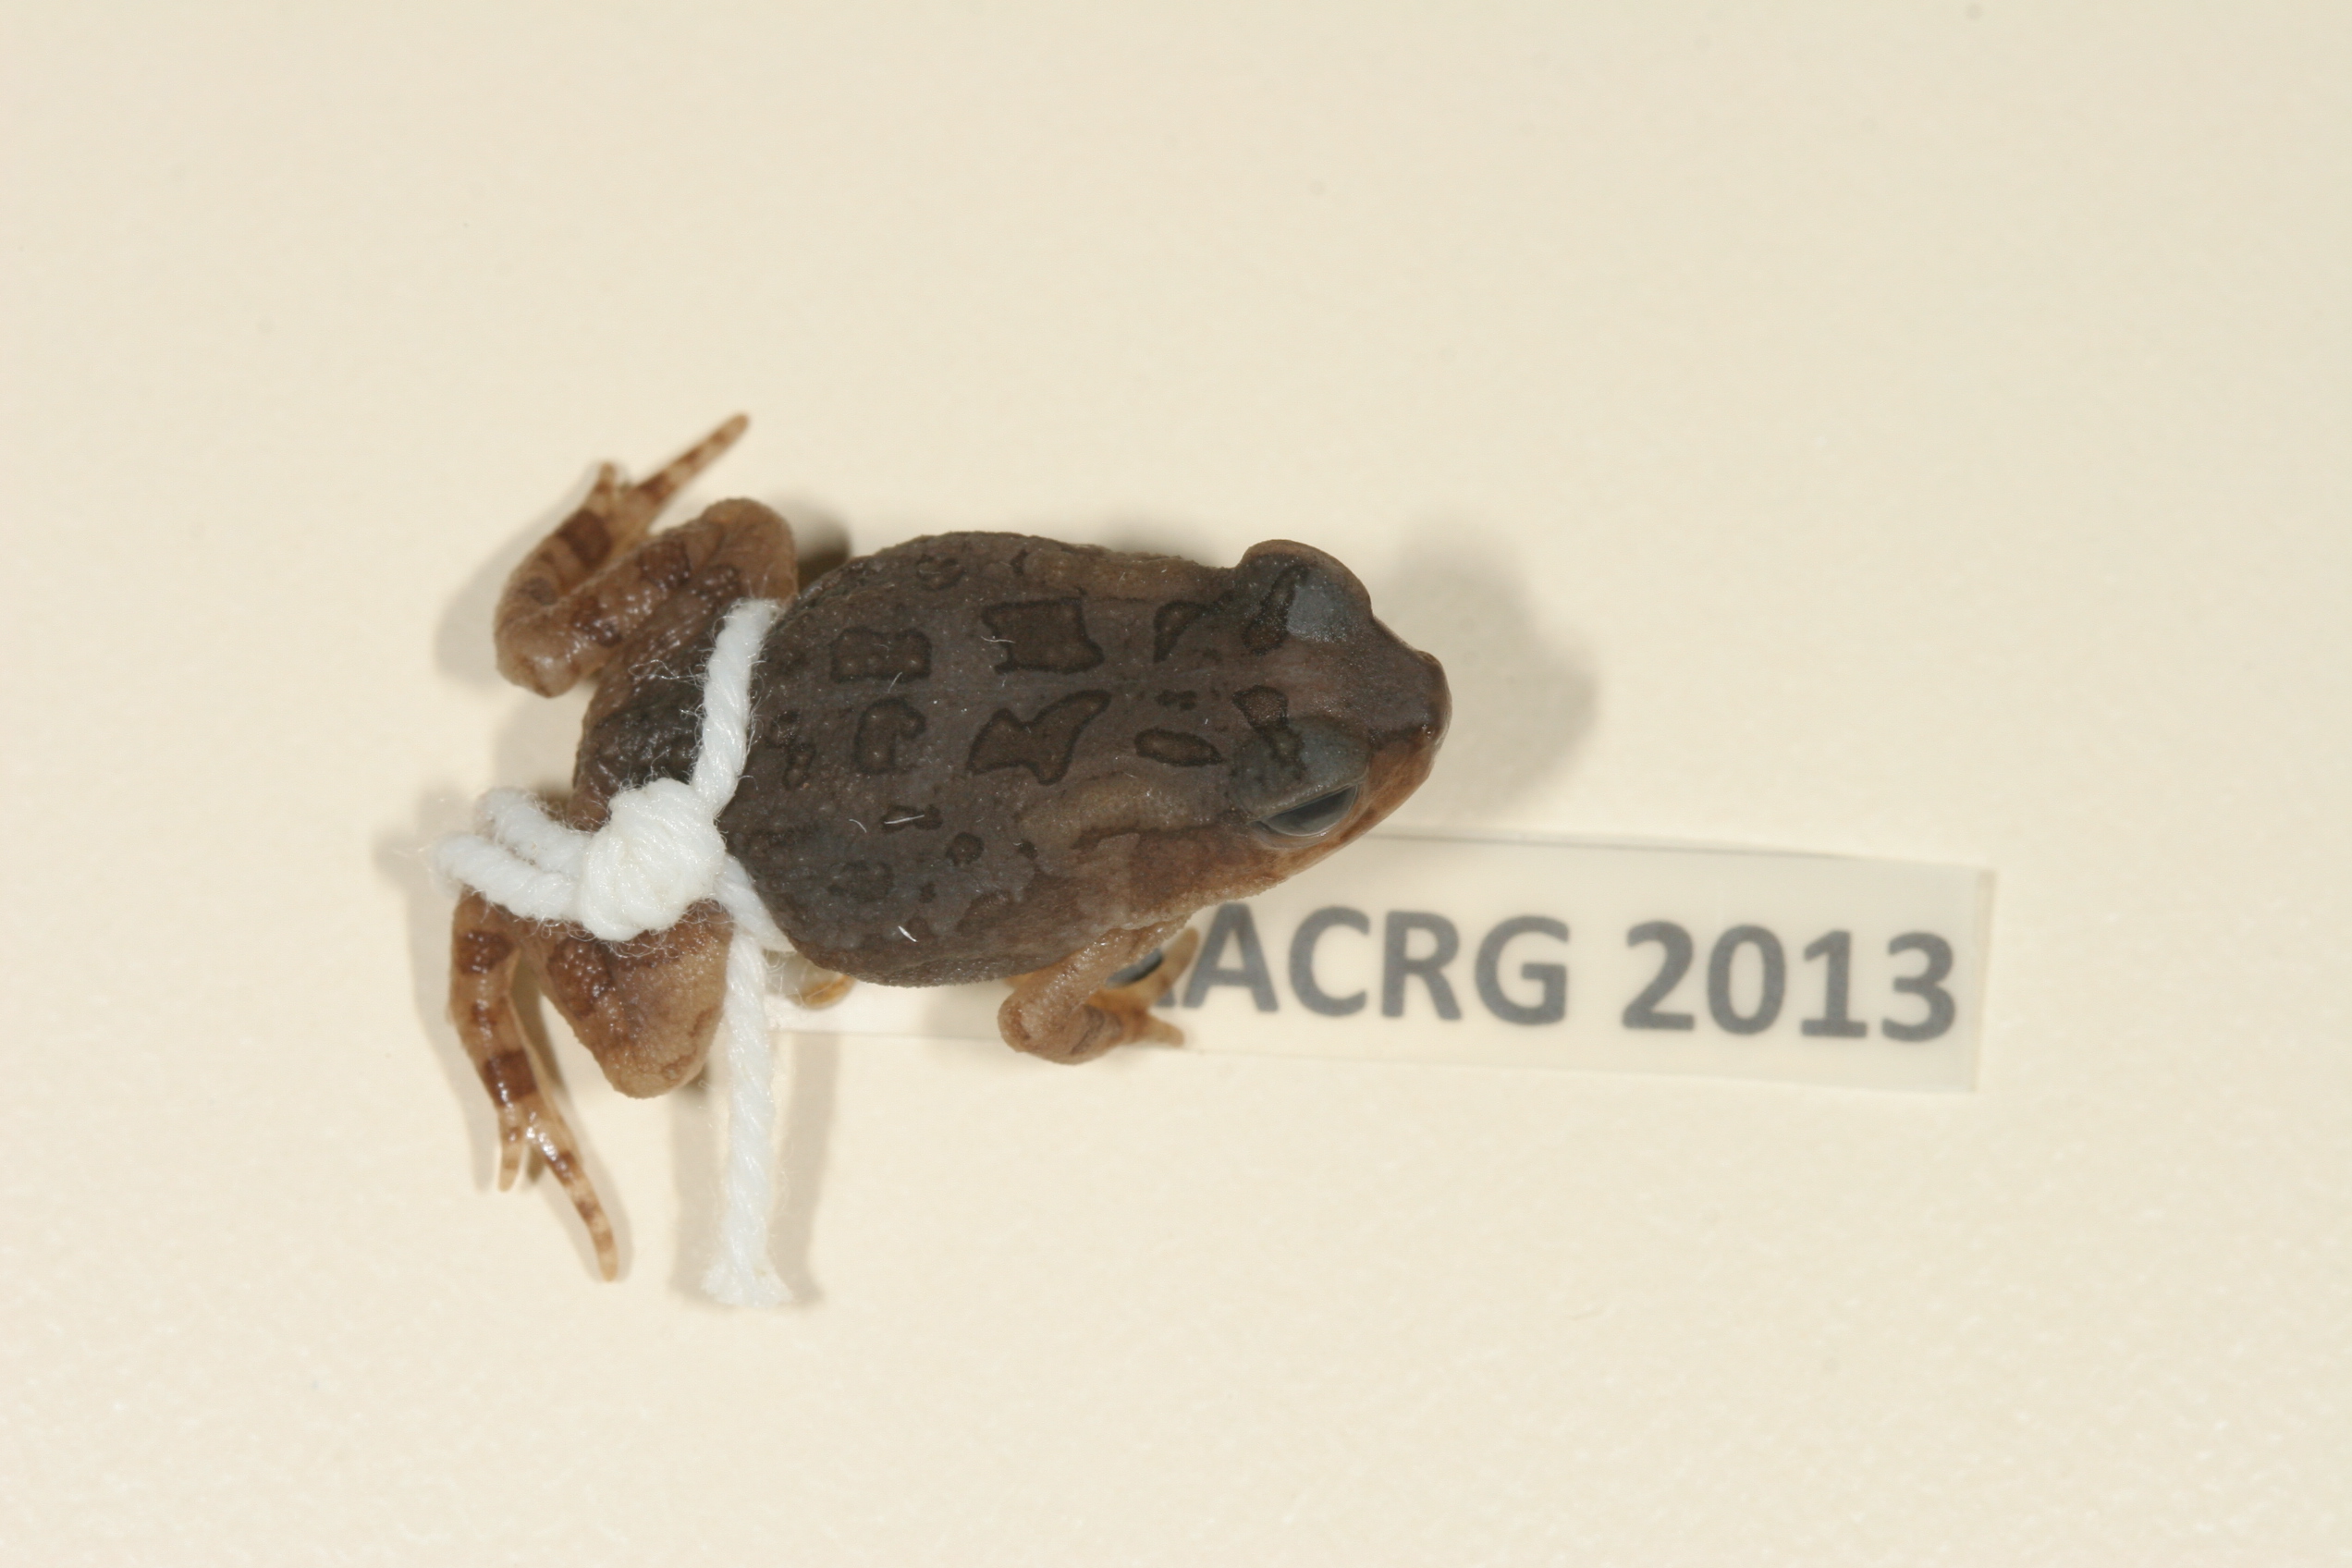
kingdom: Animalia
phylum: Chordata
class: Amphibia
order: Anura
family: Bufonidae
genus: Sclerophrys
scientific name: Sclerophrys garmani
